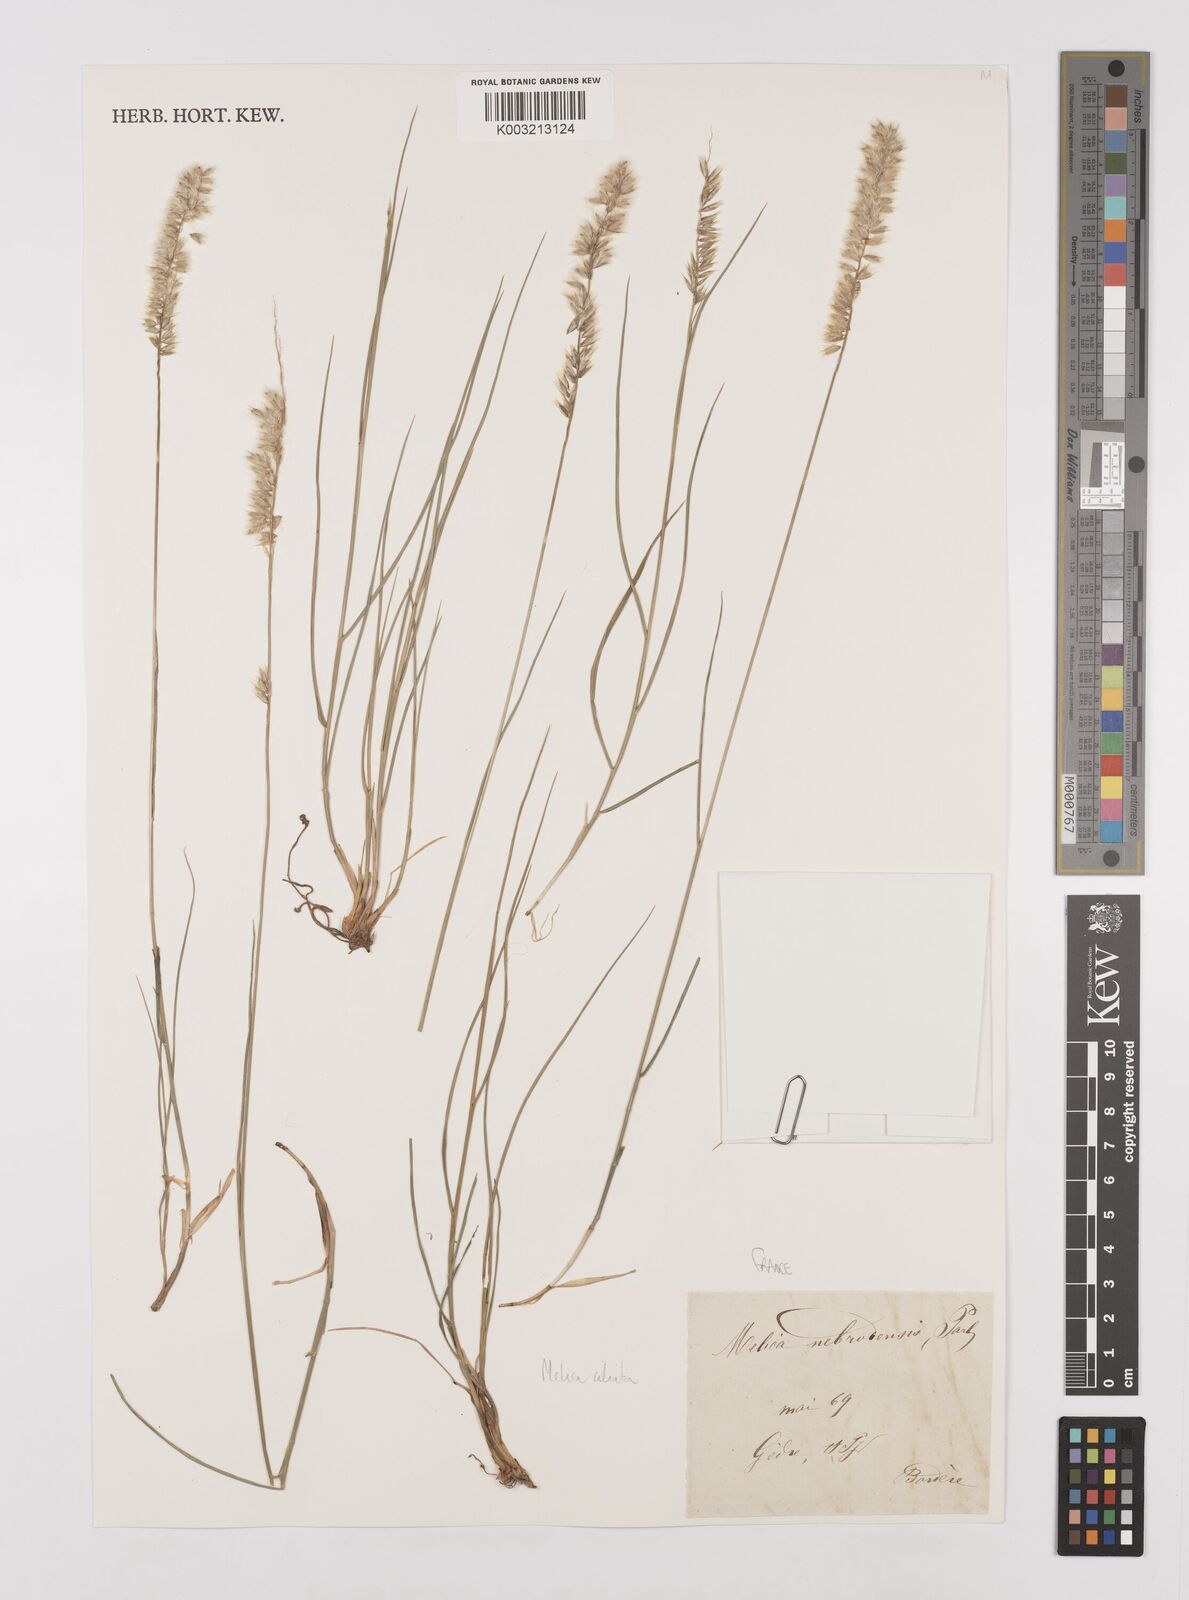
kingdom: Plantae
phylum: Tracheophyta
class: Liliopsida
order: Poales
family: Poaceae
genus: Melica
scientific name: Melica ciliata
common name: Hairy melicgrass
